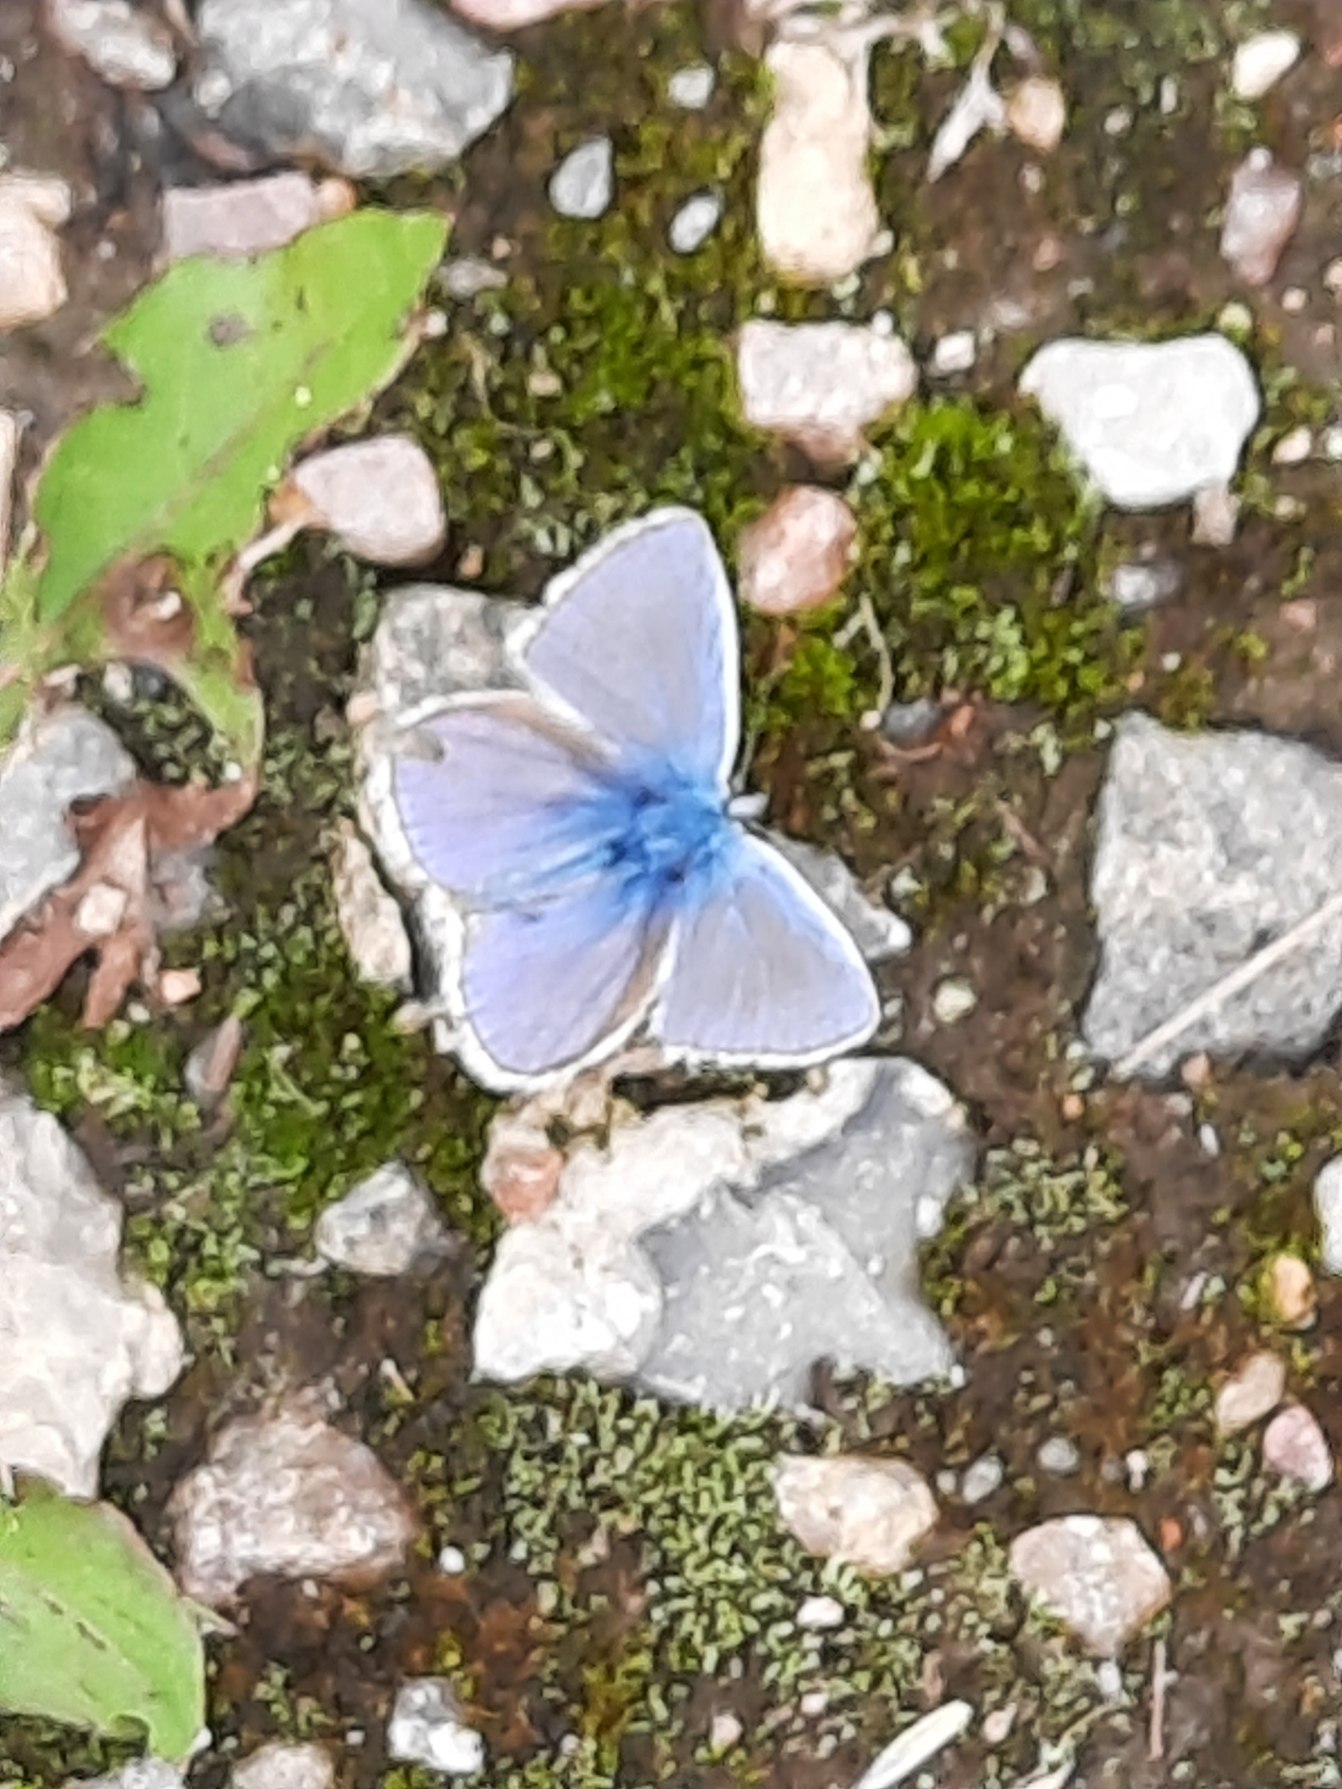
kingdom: Animalia
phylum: Arthropoda
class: Insecta
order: Lepidoptera
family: Lycaenidae
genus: Polyommatus
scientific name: Polyommatus icarus
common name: Almindelig blåfugl
